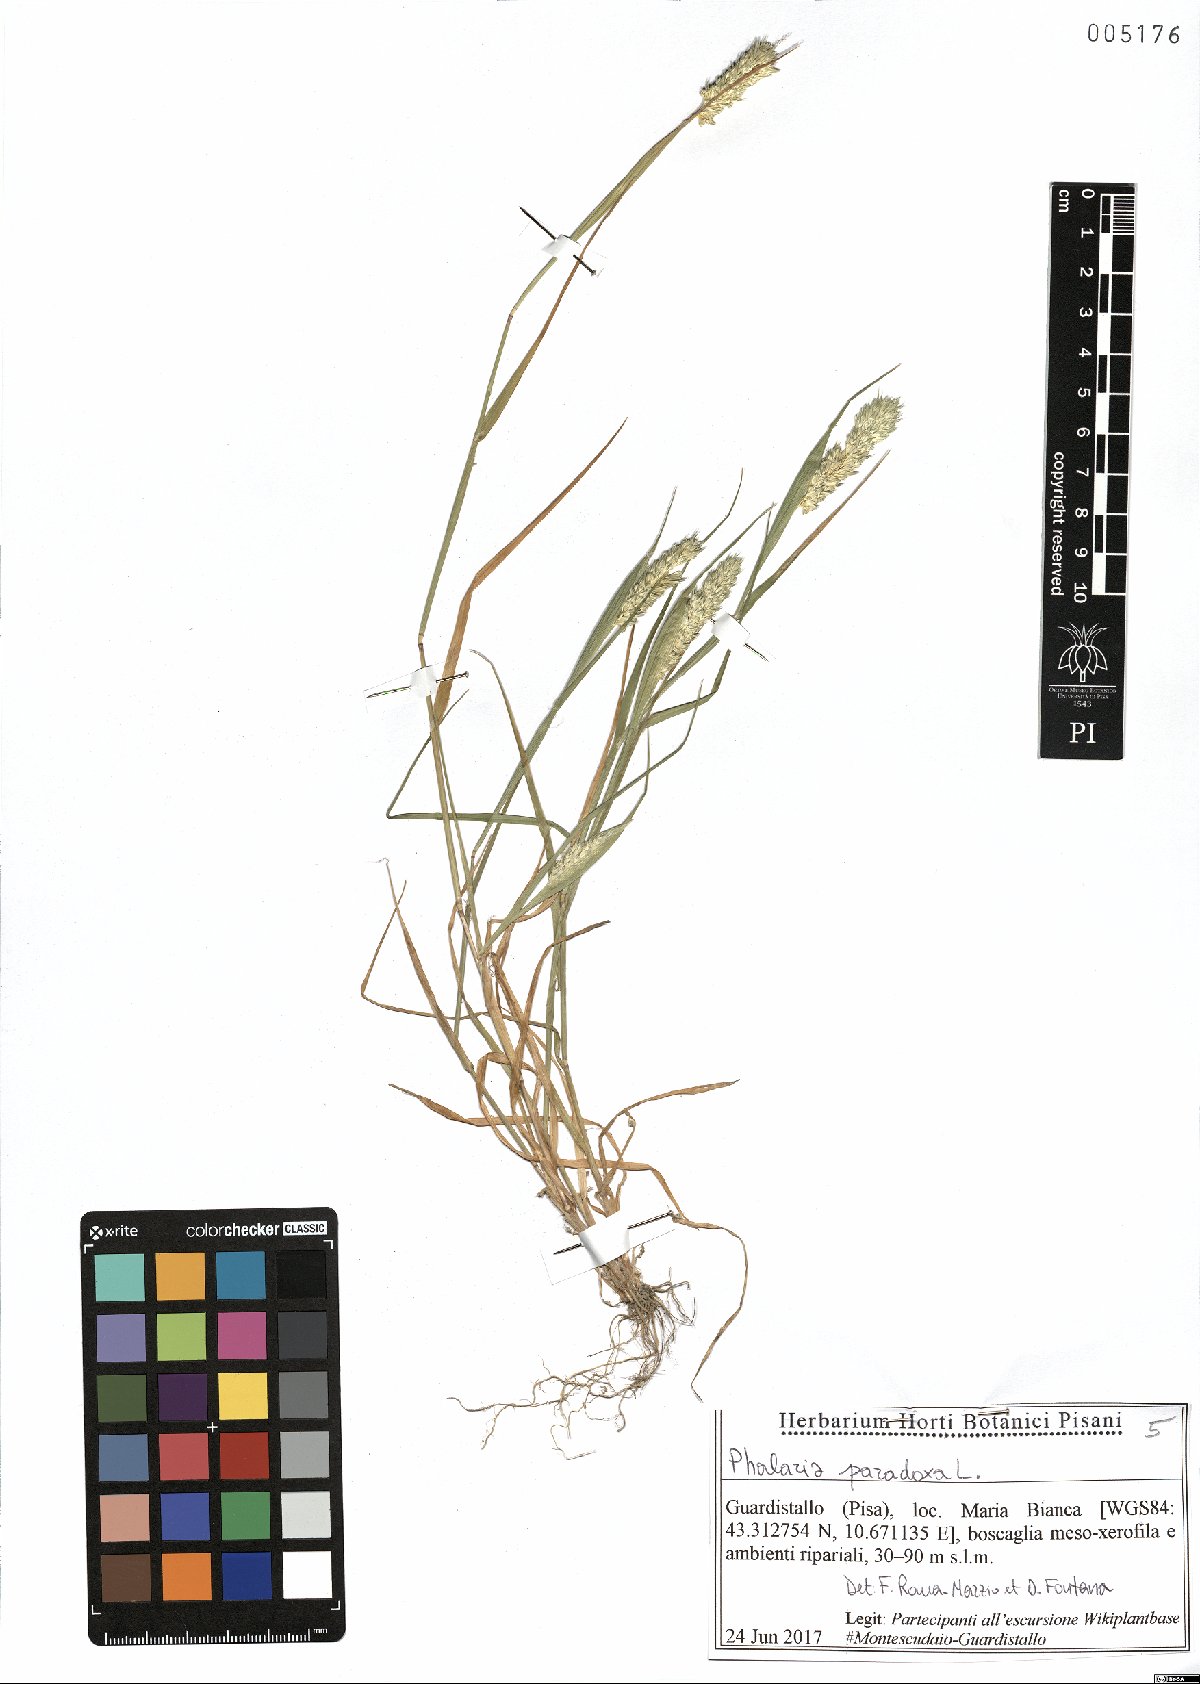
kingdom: Plantae
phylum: Tracheophyta
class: Liliopsida
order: Poales
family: Poaceae
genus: Phalaris
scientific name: Phalaris paradoxa
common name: Awned canary-grass
